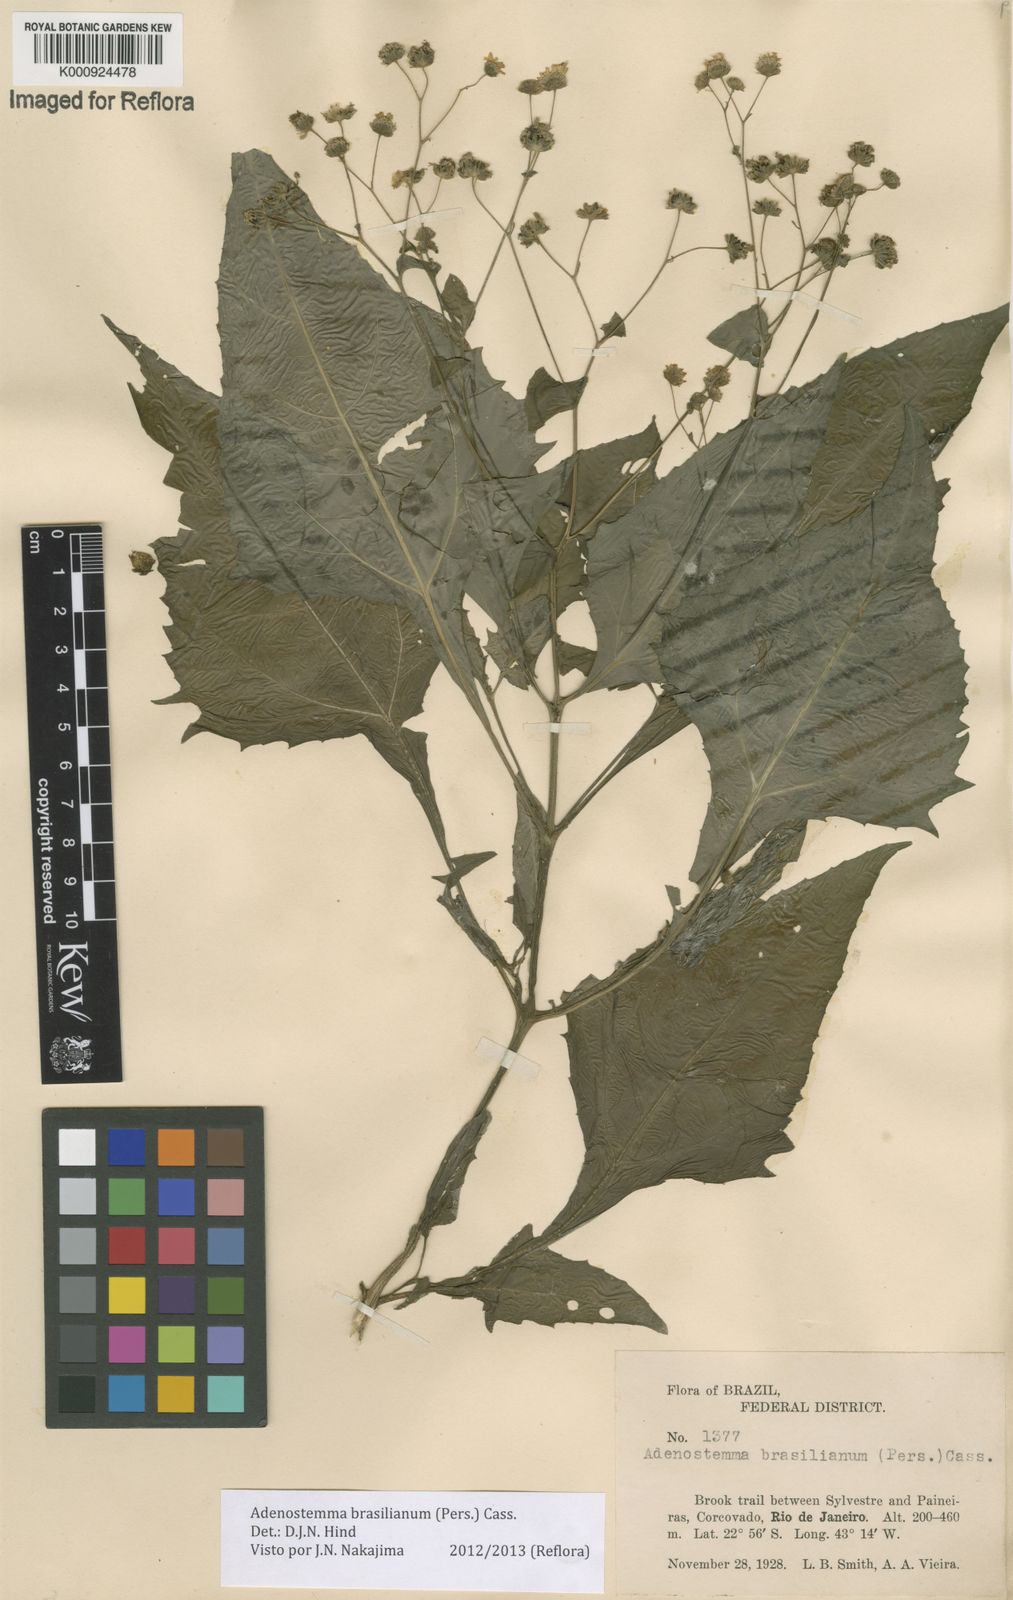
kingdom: Plantae
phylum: Tracheophyta
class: Magnoliopsida
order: Asterales
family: Asteraceae
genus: Adenostemma
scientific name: Adenostemma brasilianum
